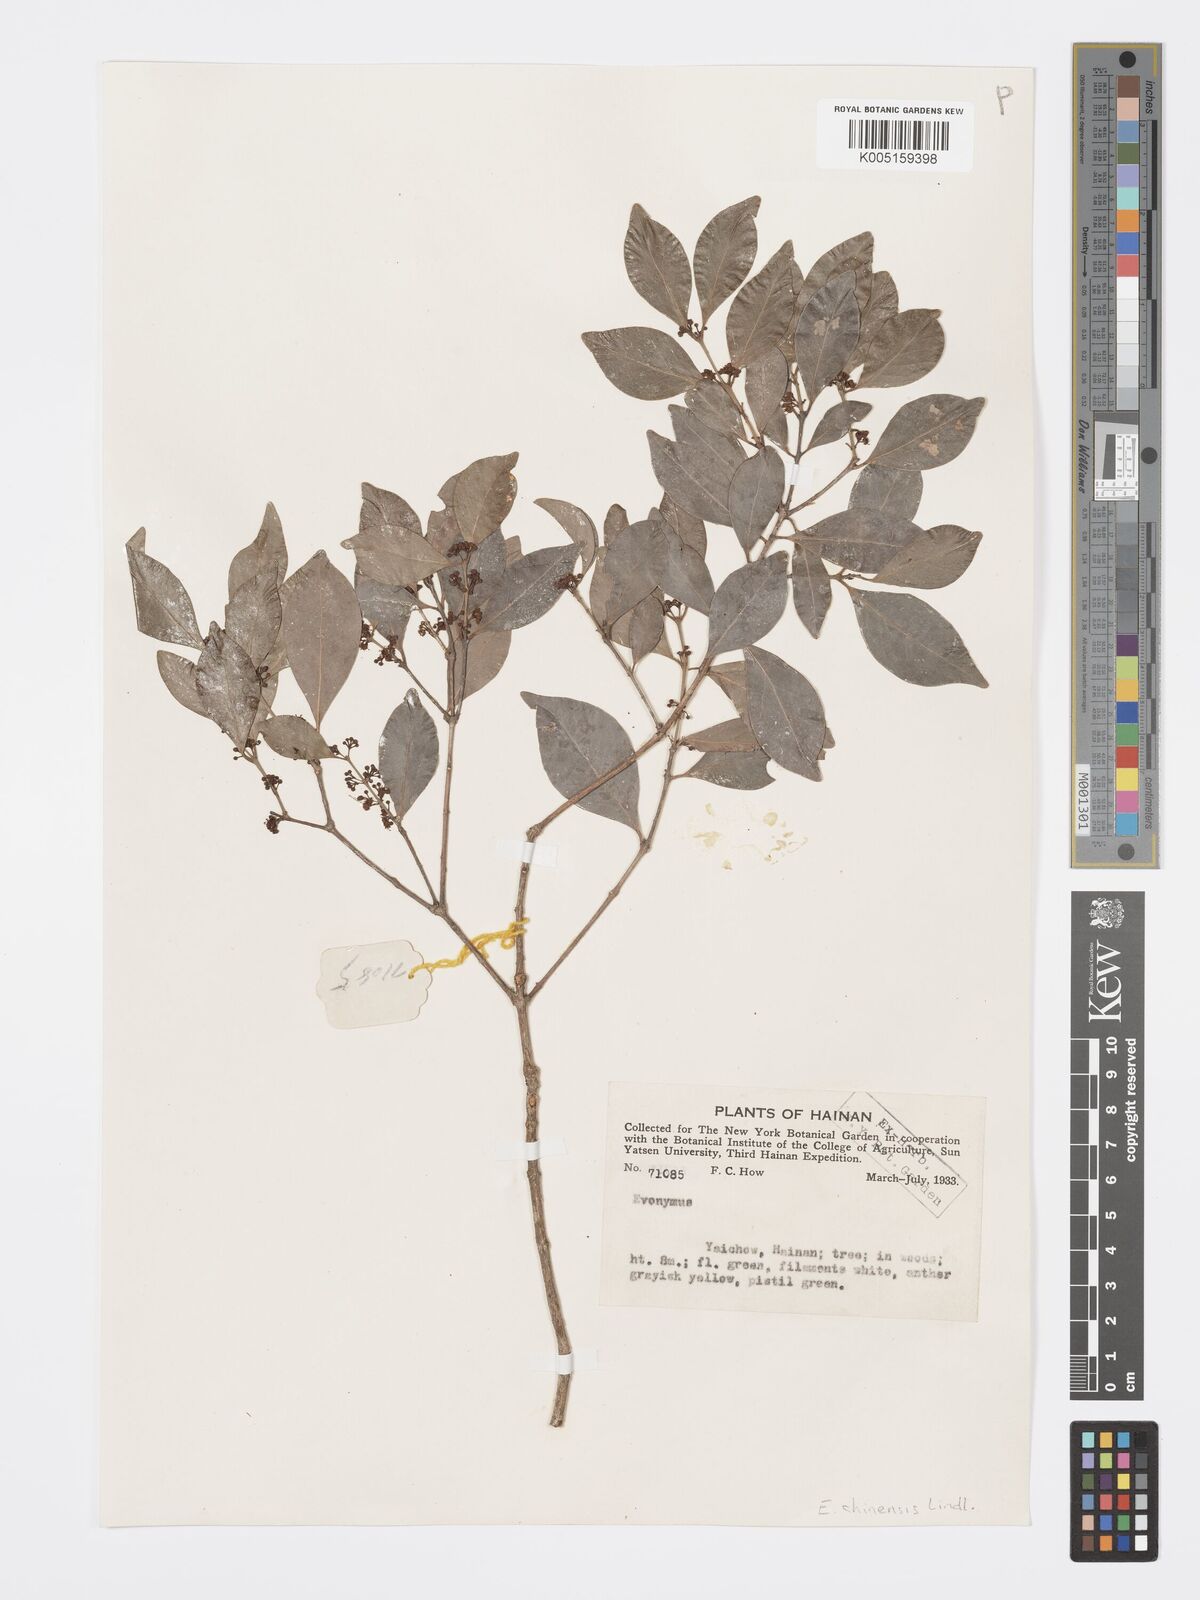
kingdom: Plantae
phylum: Tracheophyta
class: Magnoliopsida
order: Celastrales
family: Celastraceae
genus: Euonymus
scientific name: Euonymus nitidus
